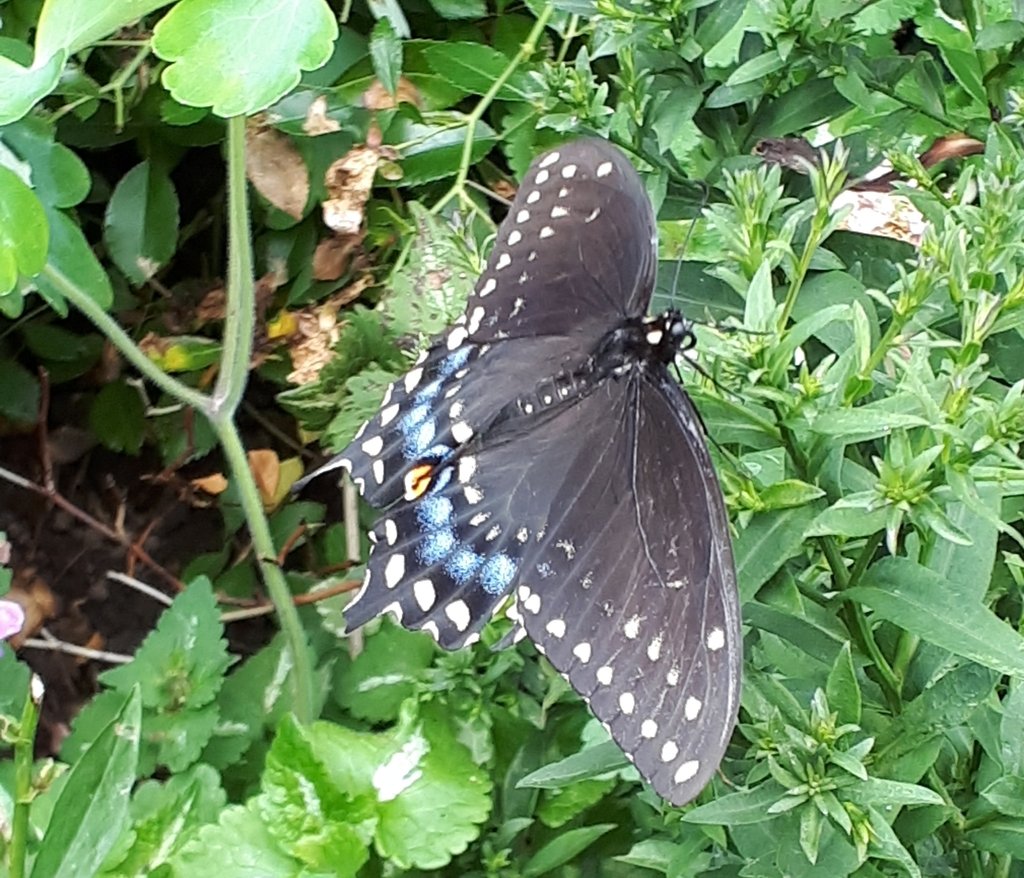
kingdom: Animalia
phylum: Arthropoda
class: Insecta
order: Lepidoptera
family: Papilionidae
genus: Papilio
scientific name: Papilio polyxenes
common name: Black Swallowtail
